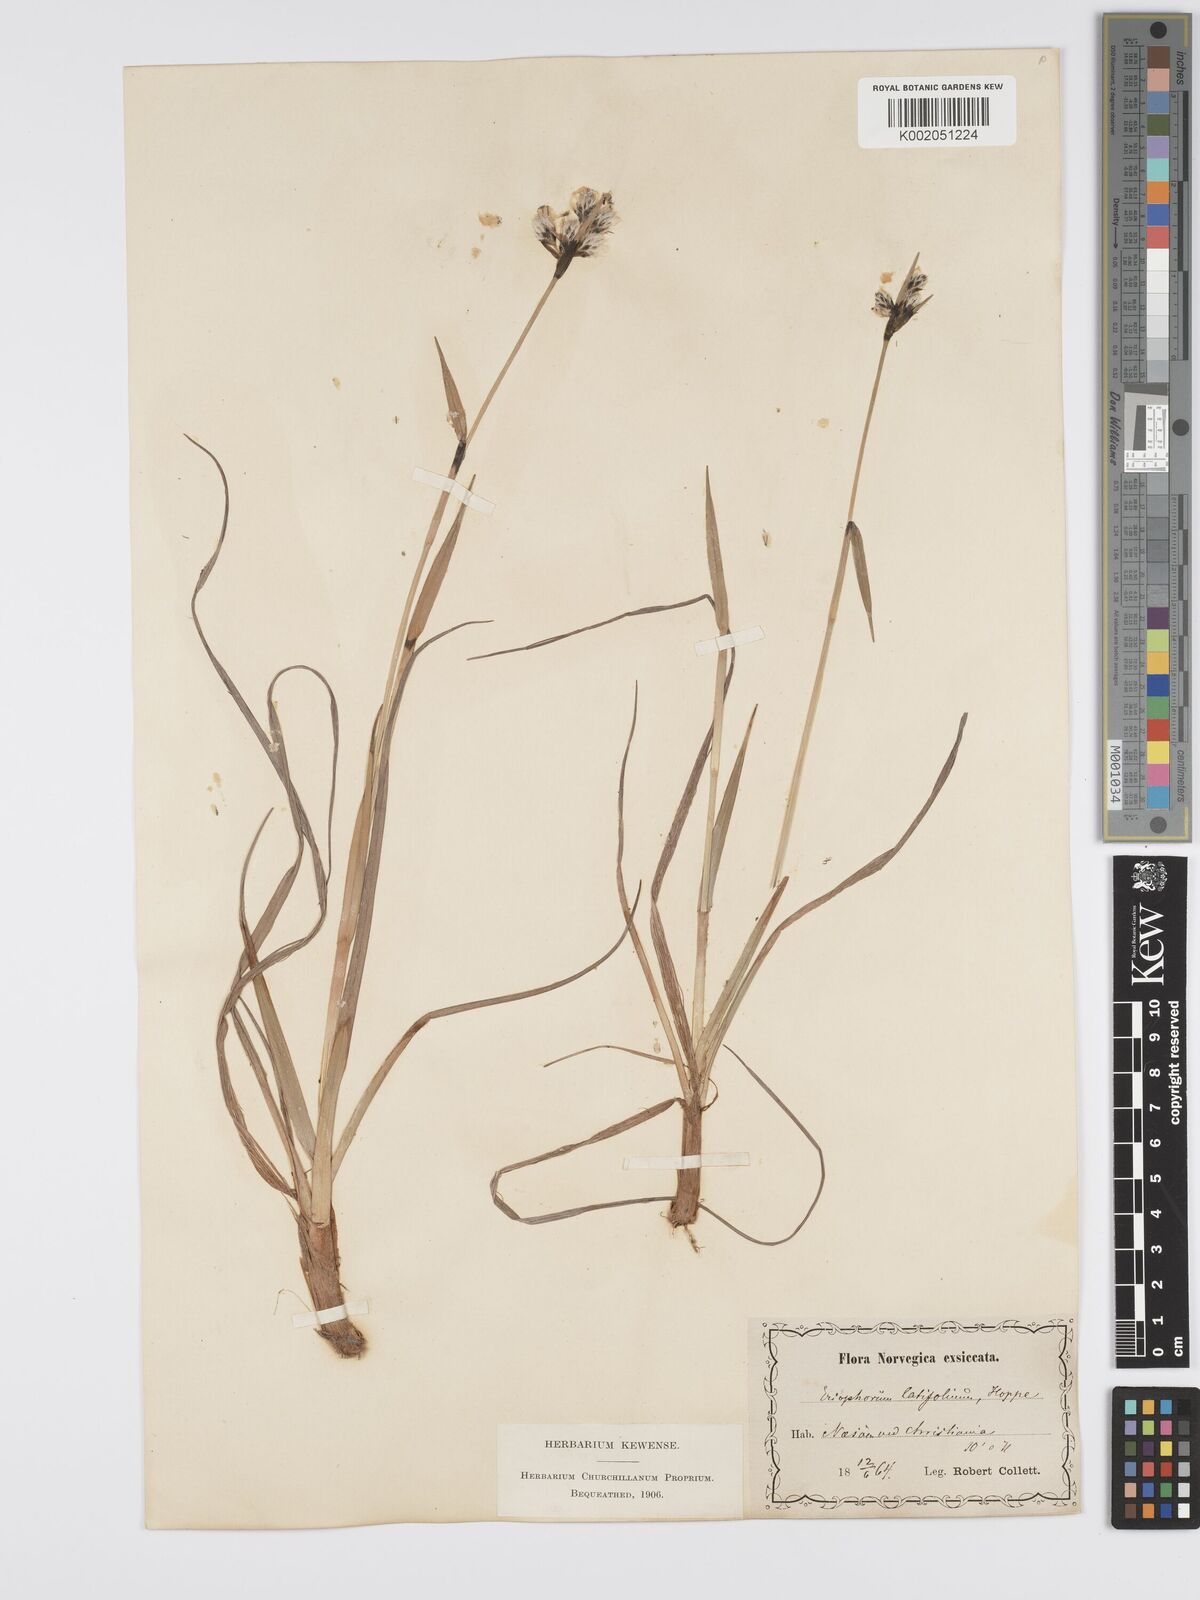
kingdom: Plantae
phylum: Tracheophyta
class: Liliopsida
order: Poales
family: Cyperaceae
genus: Eriophorum
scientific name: Eriophorum latifolium
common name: Broad-leaved cottongrass
